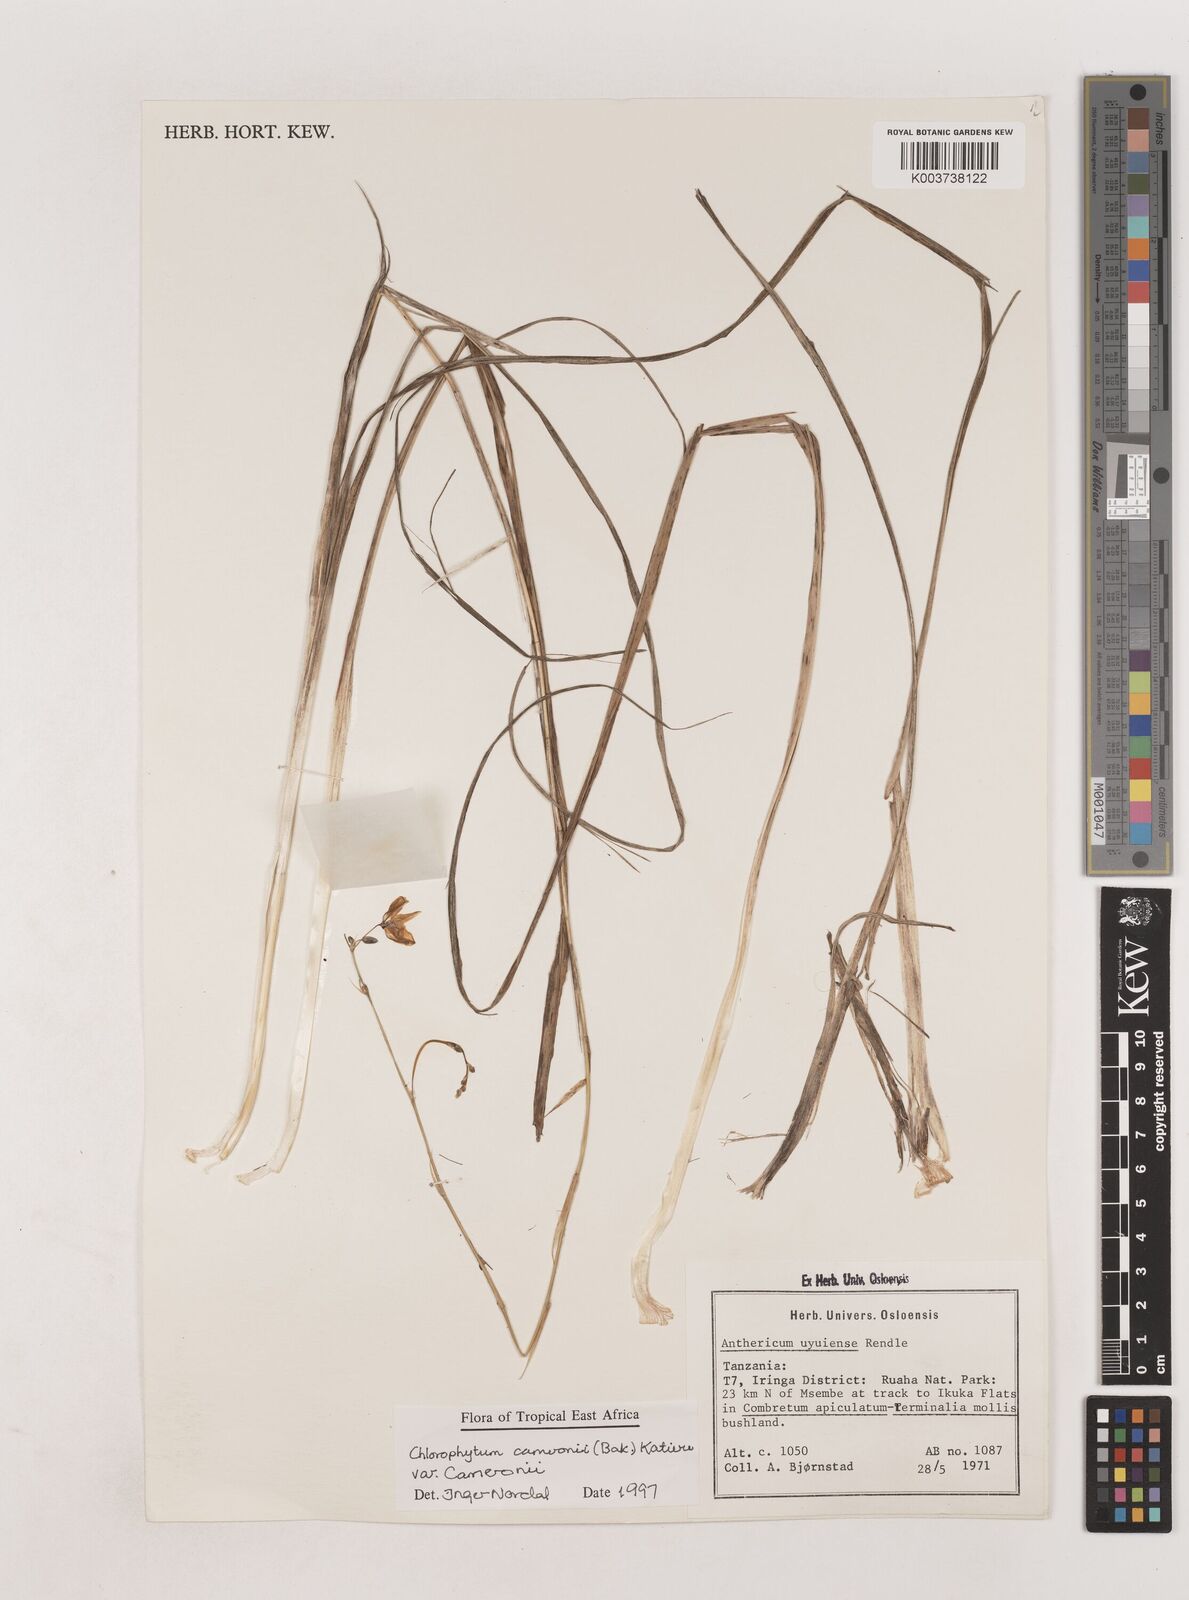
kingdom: Plantae
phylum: Tracheophyta
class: Liliopsida
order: Asparagales
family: Asparagaceae
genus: Chlorophytum
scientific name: Chlorophytum cameronii
